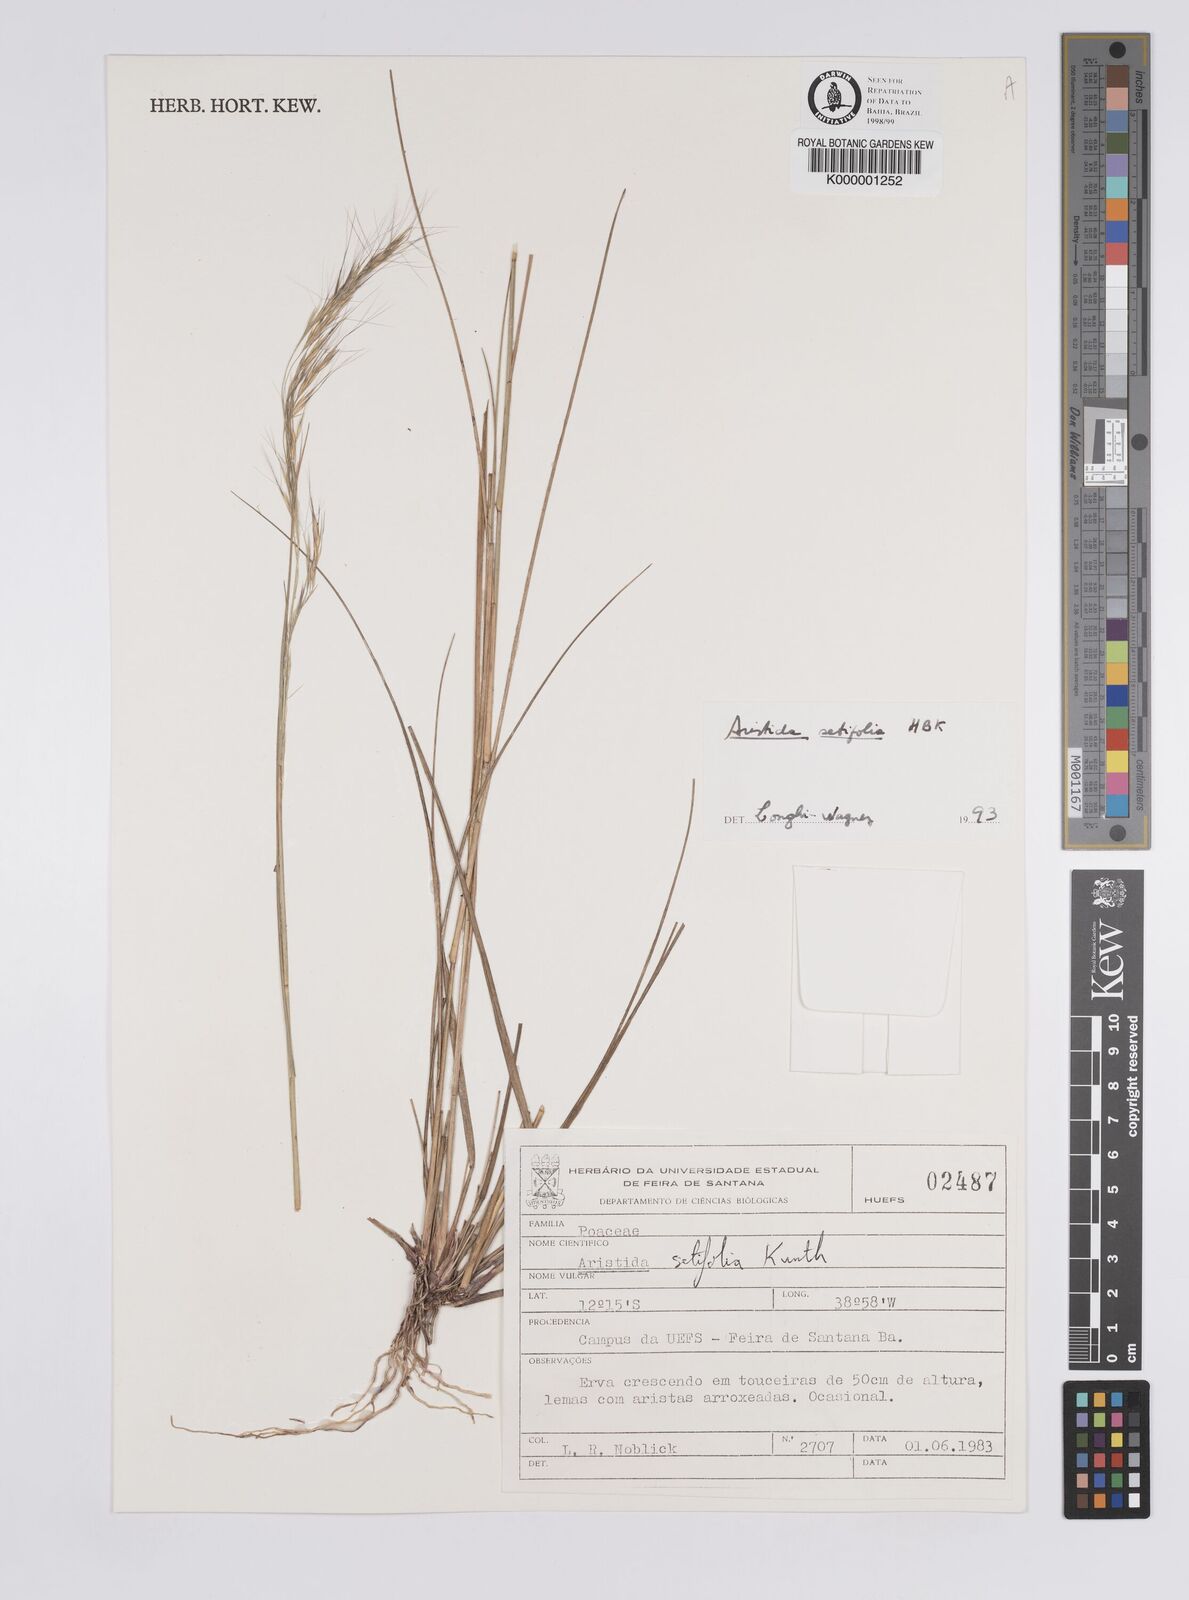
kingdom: Plantae
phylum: Tracheophyta
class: Liliopsida
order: Poales
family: Poaceae
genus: Aristida
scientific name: Aristida setifolia
